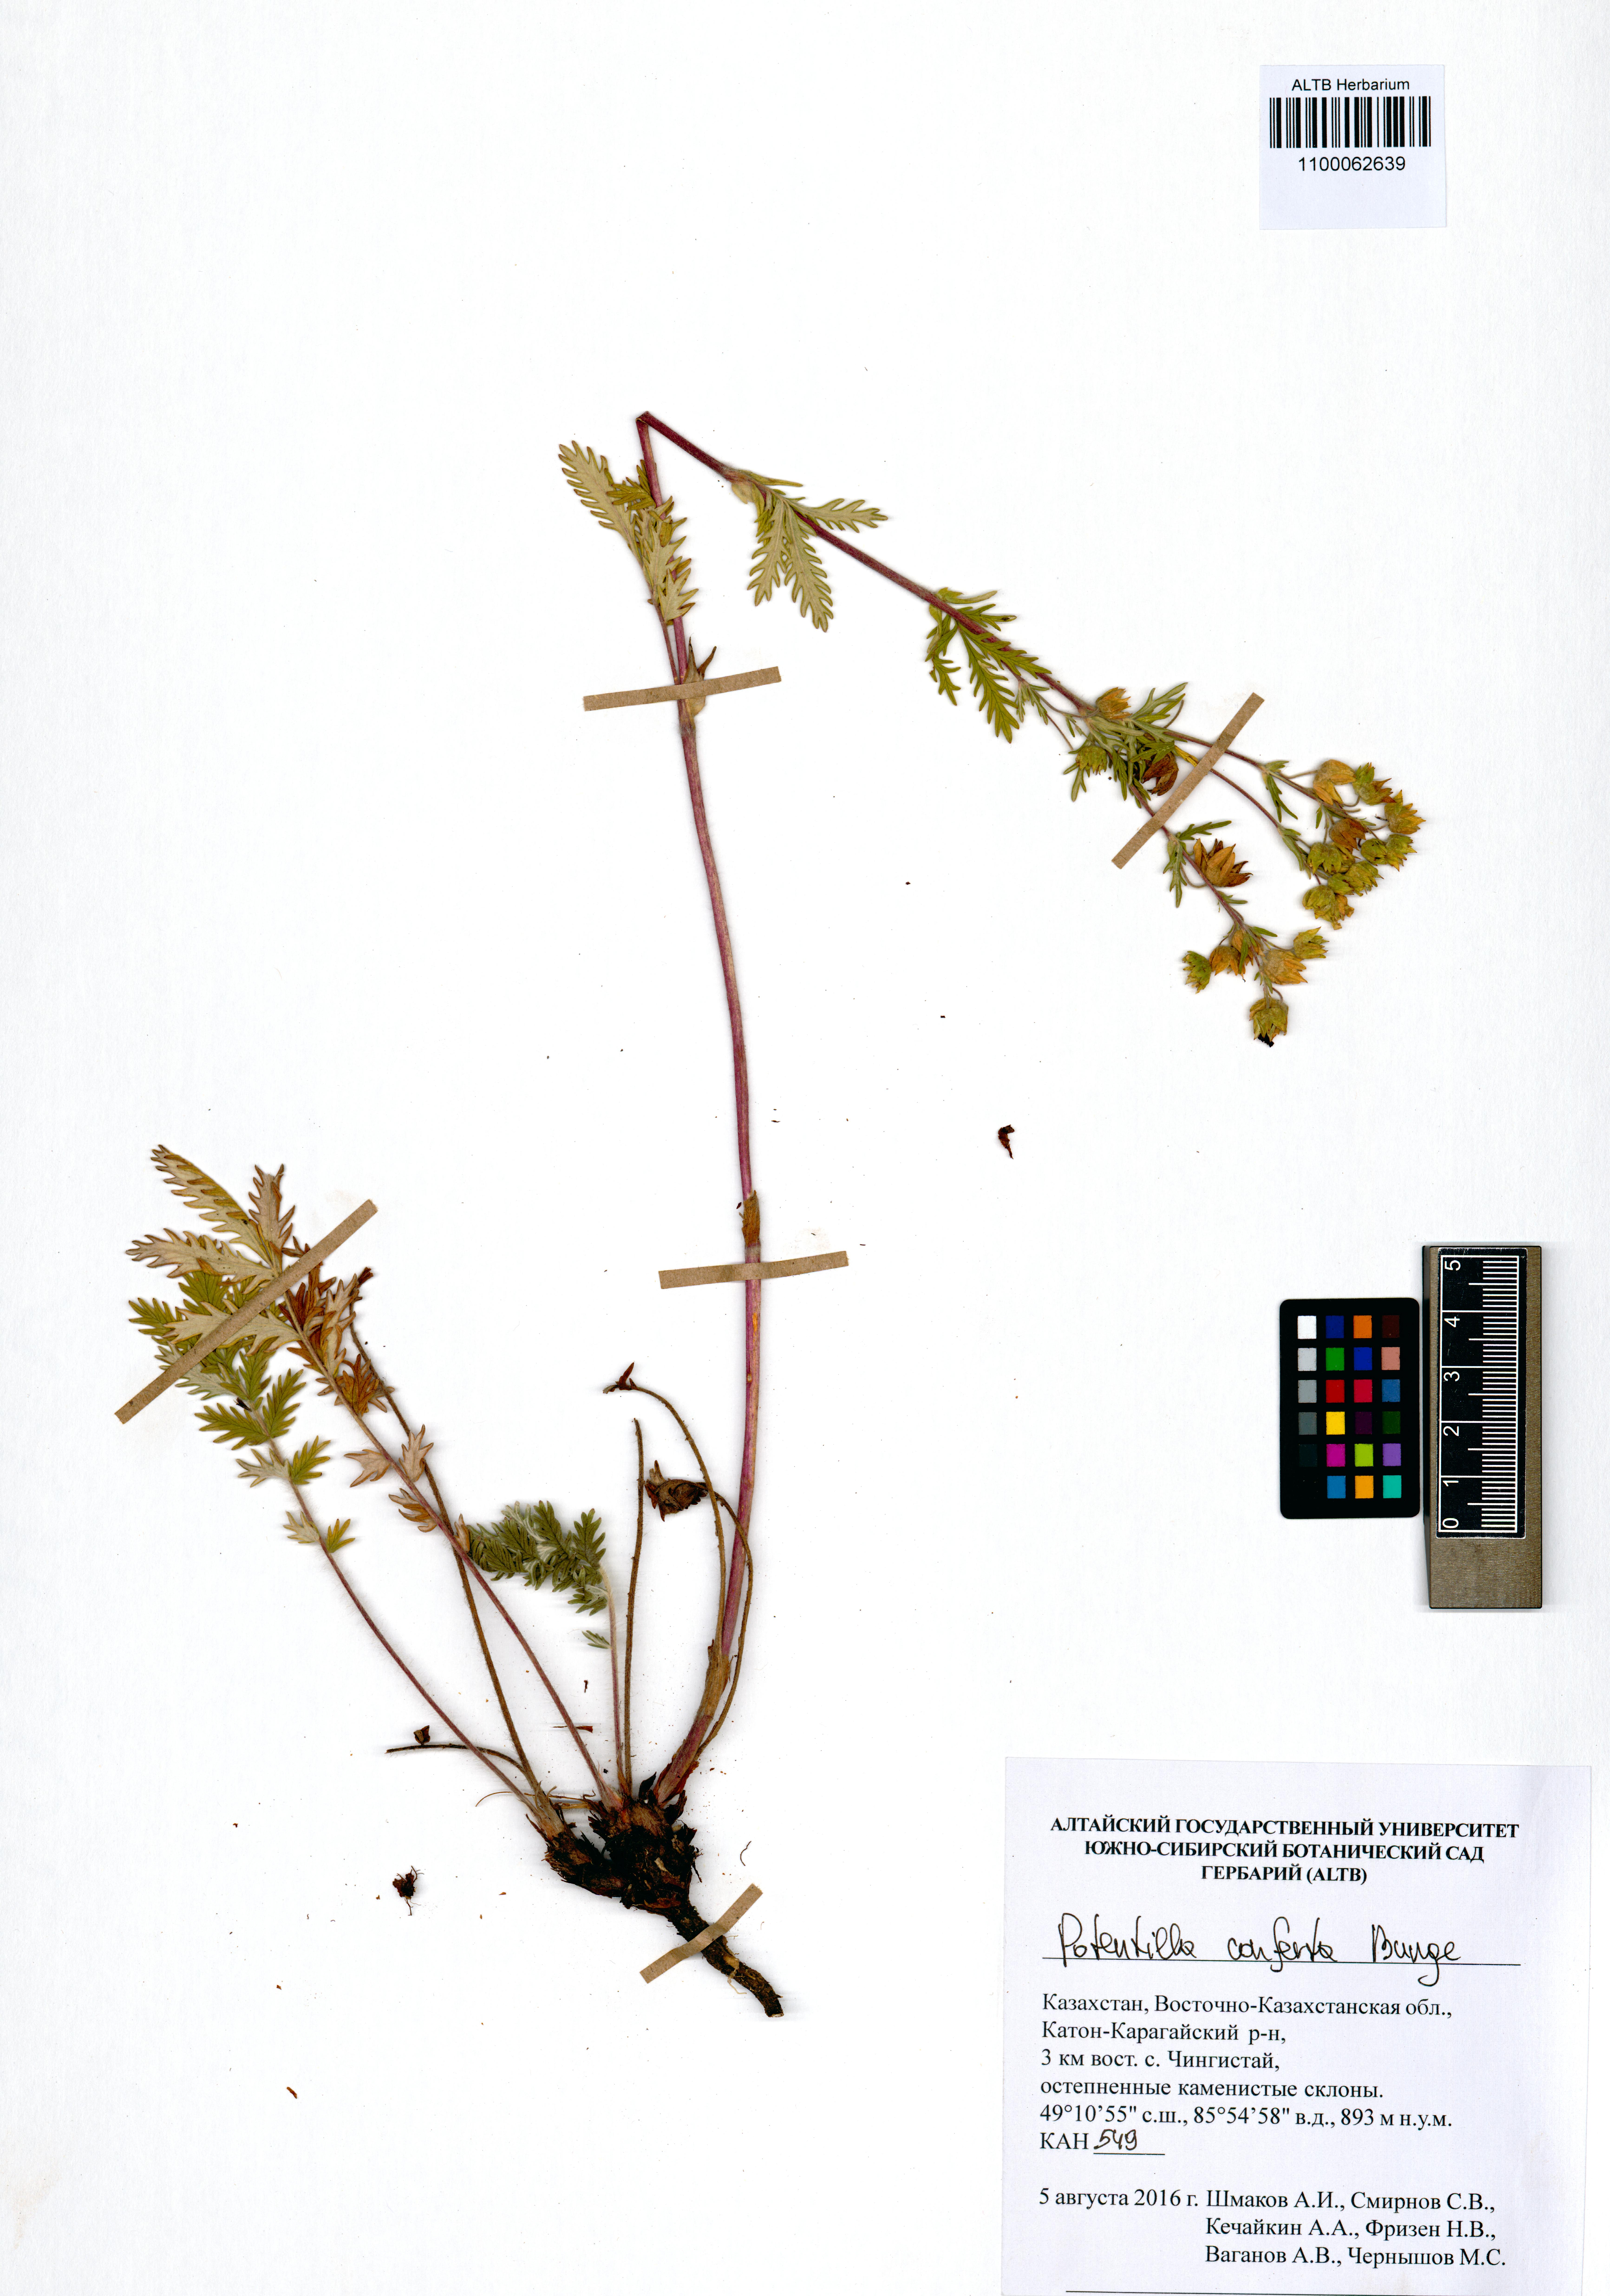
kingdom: Plantae
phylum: Tracheophyta
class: Magnoliopsida
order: Rosales
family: Rosaceae
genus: Potentilla
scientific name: Potentilla conferta
